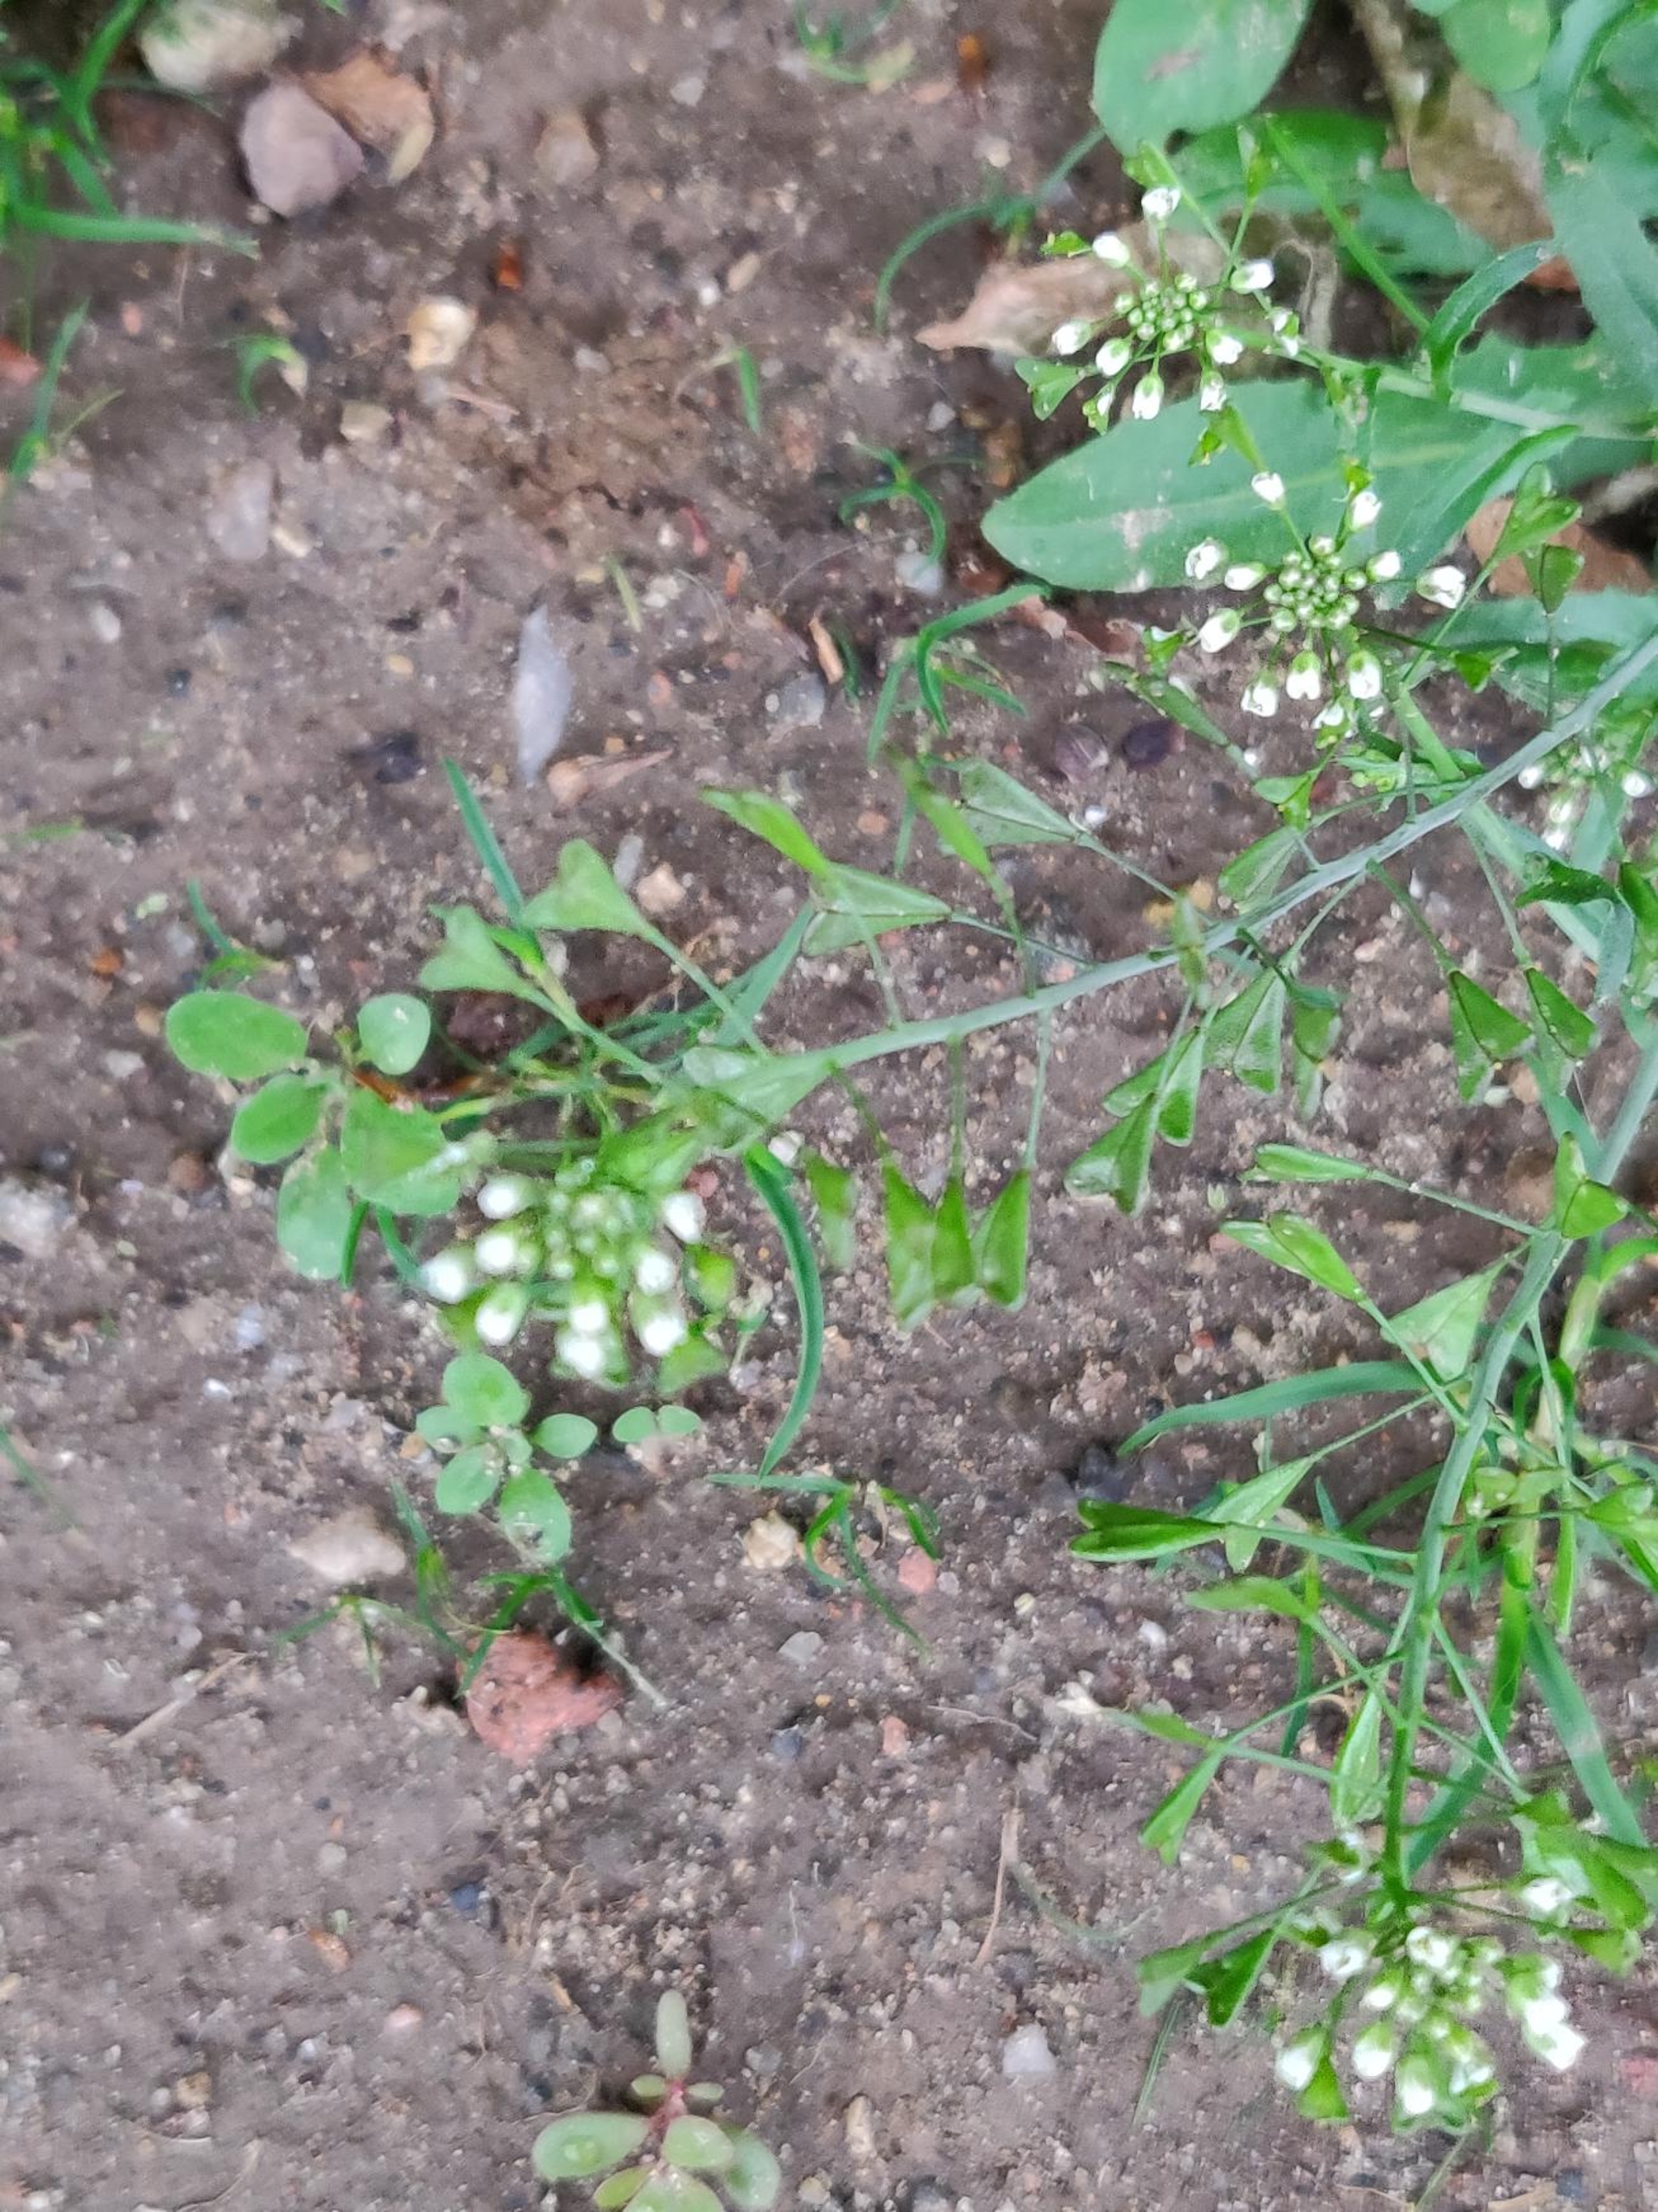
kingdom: Plantae
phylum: Tracheophyta
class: Magnoliopsida
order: Brassicales
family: Brassicaceae
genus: Capsella
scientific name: Capsella bursa-pastoris
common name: Hyrdetaske
